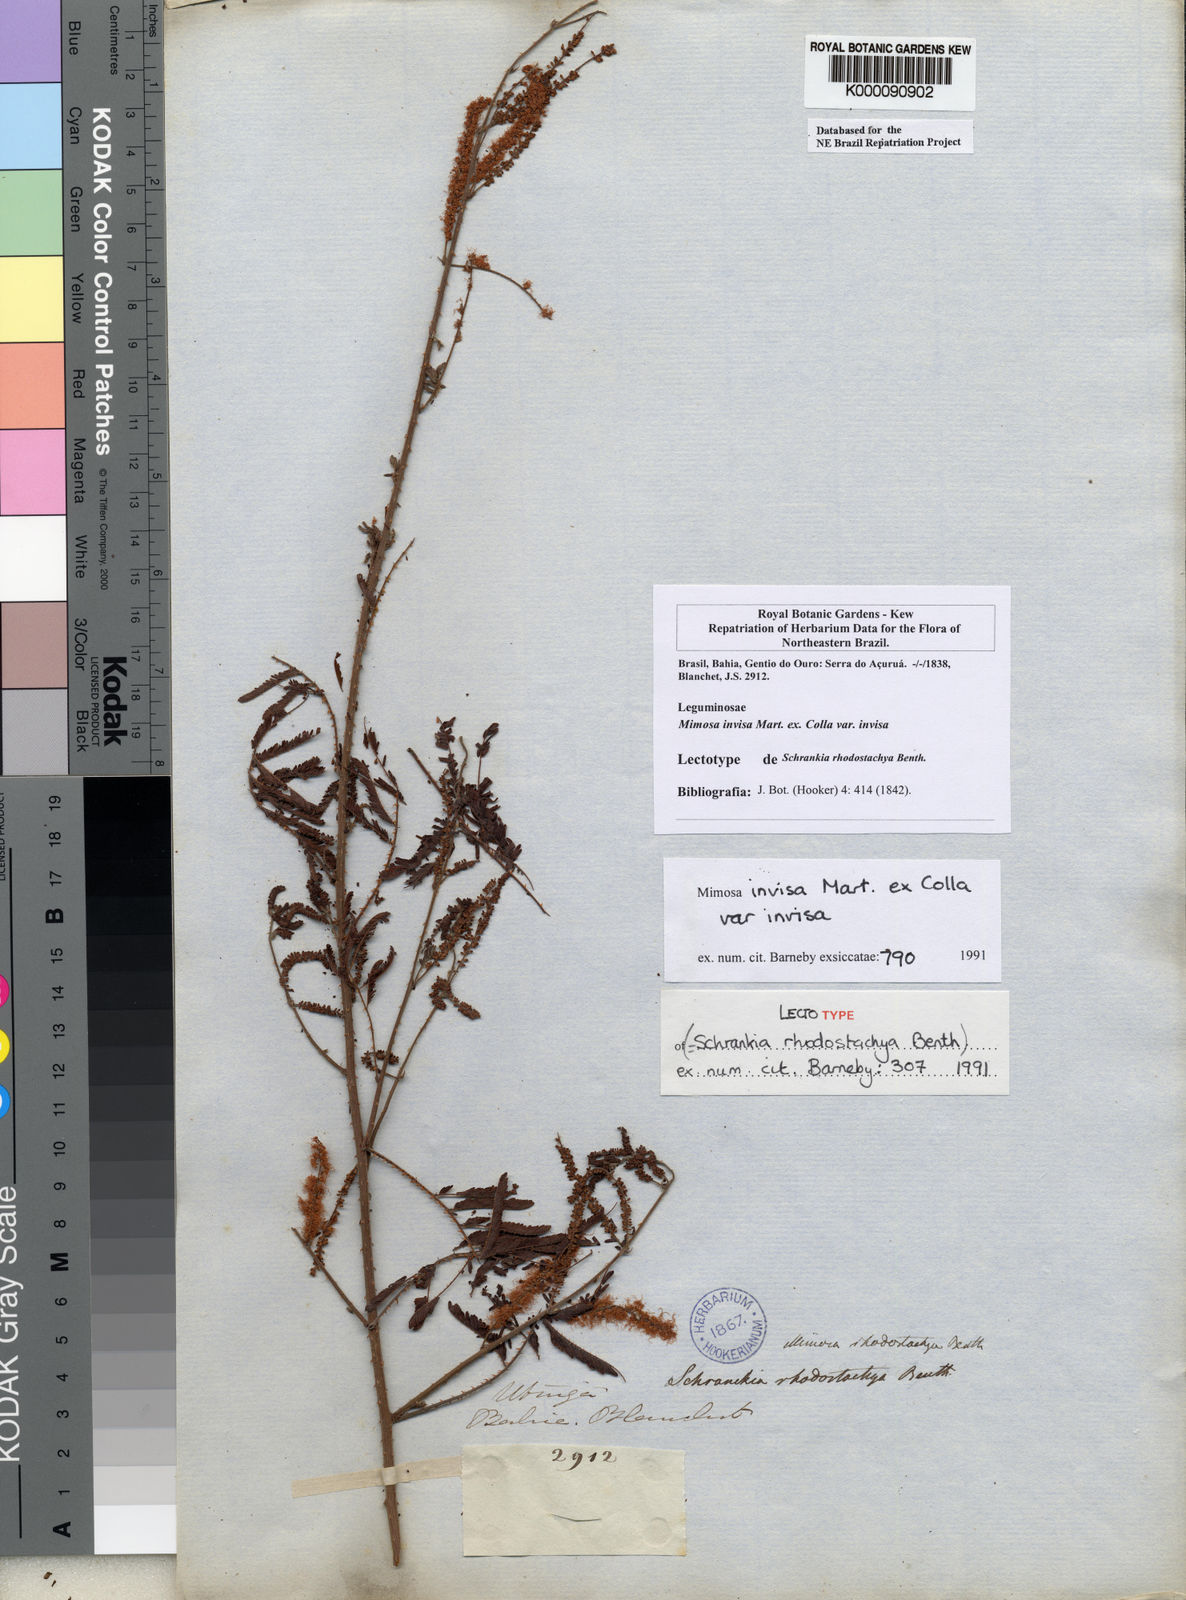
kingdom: Plantae
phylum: Tracheophyta
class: Magnoliopsida
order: Fabales
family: Fabaceae
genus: Mimosa
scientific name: Mimosa invisa
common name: Creeping sensitive-plant
